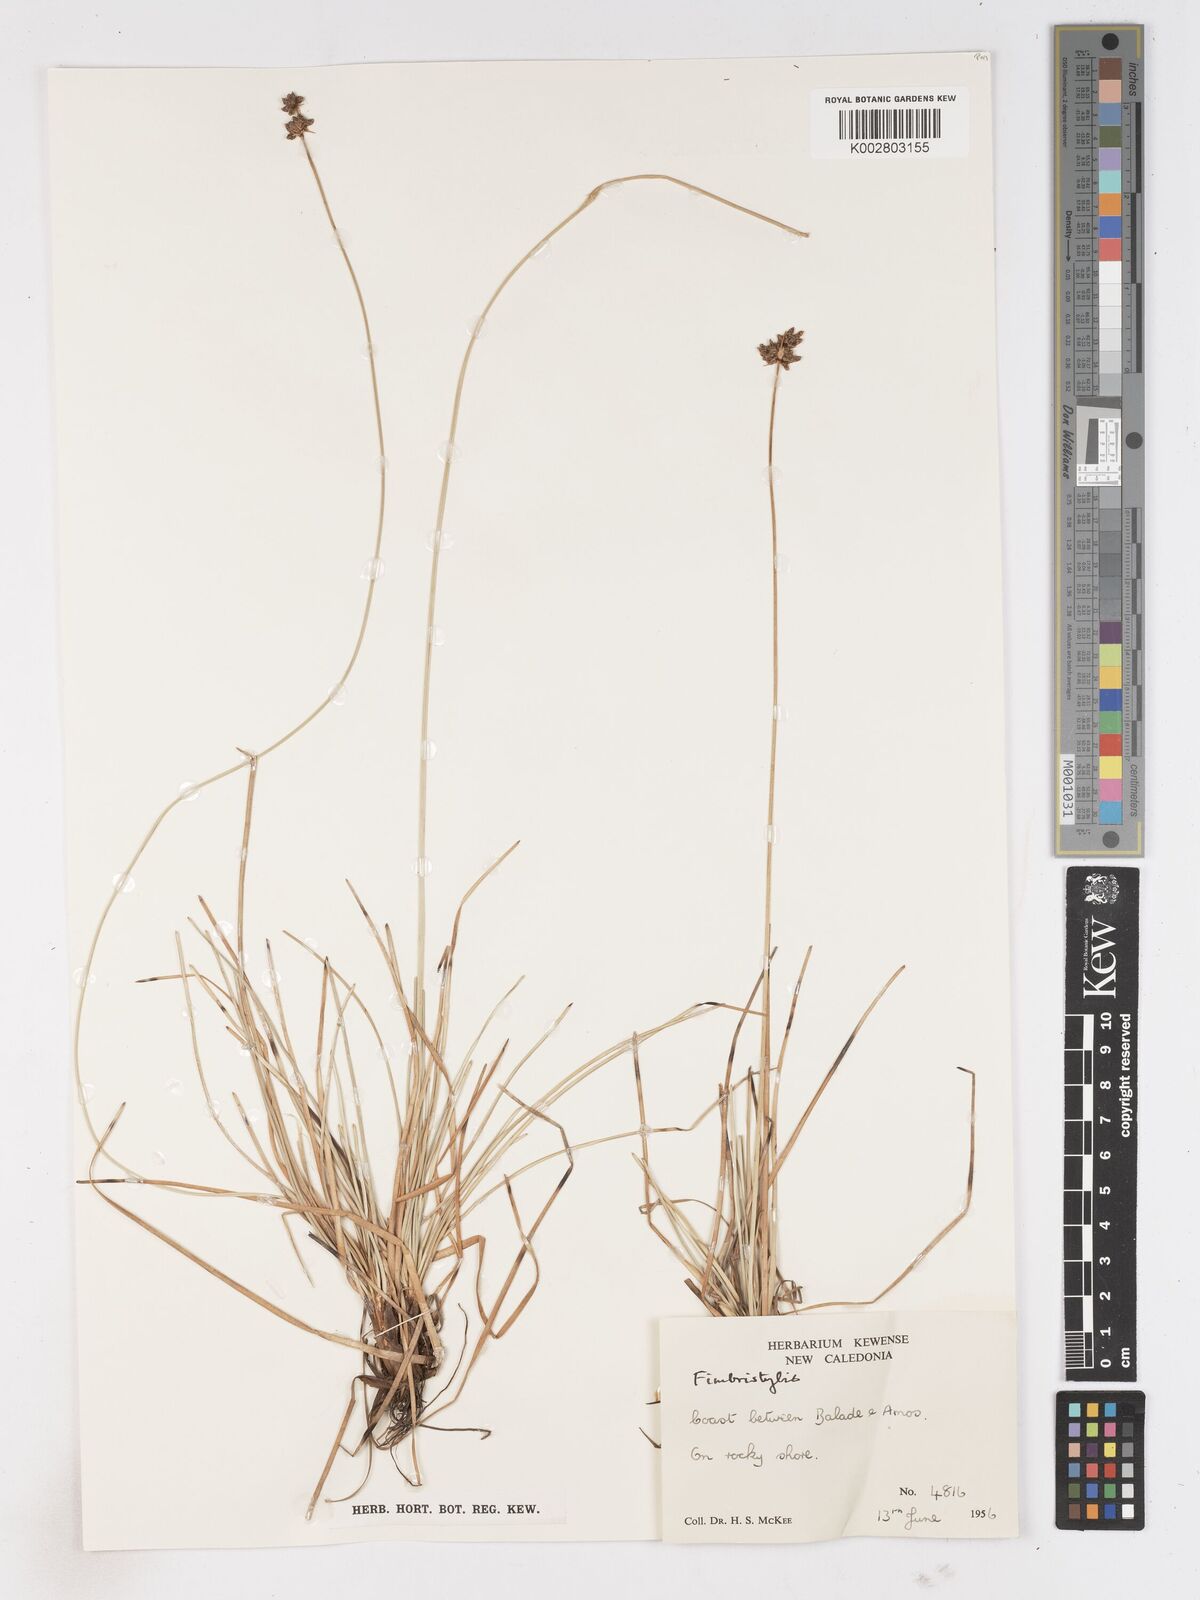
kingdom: Plantae
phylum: Tracheophyta
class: Liliopsida
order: Poales
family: Cyperaceae
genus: Fimbristylis
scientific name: Fimbristylis cymosa
